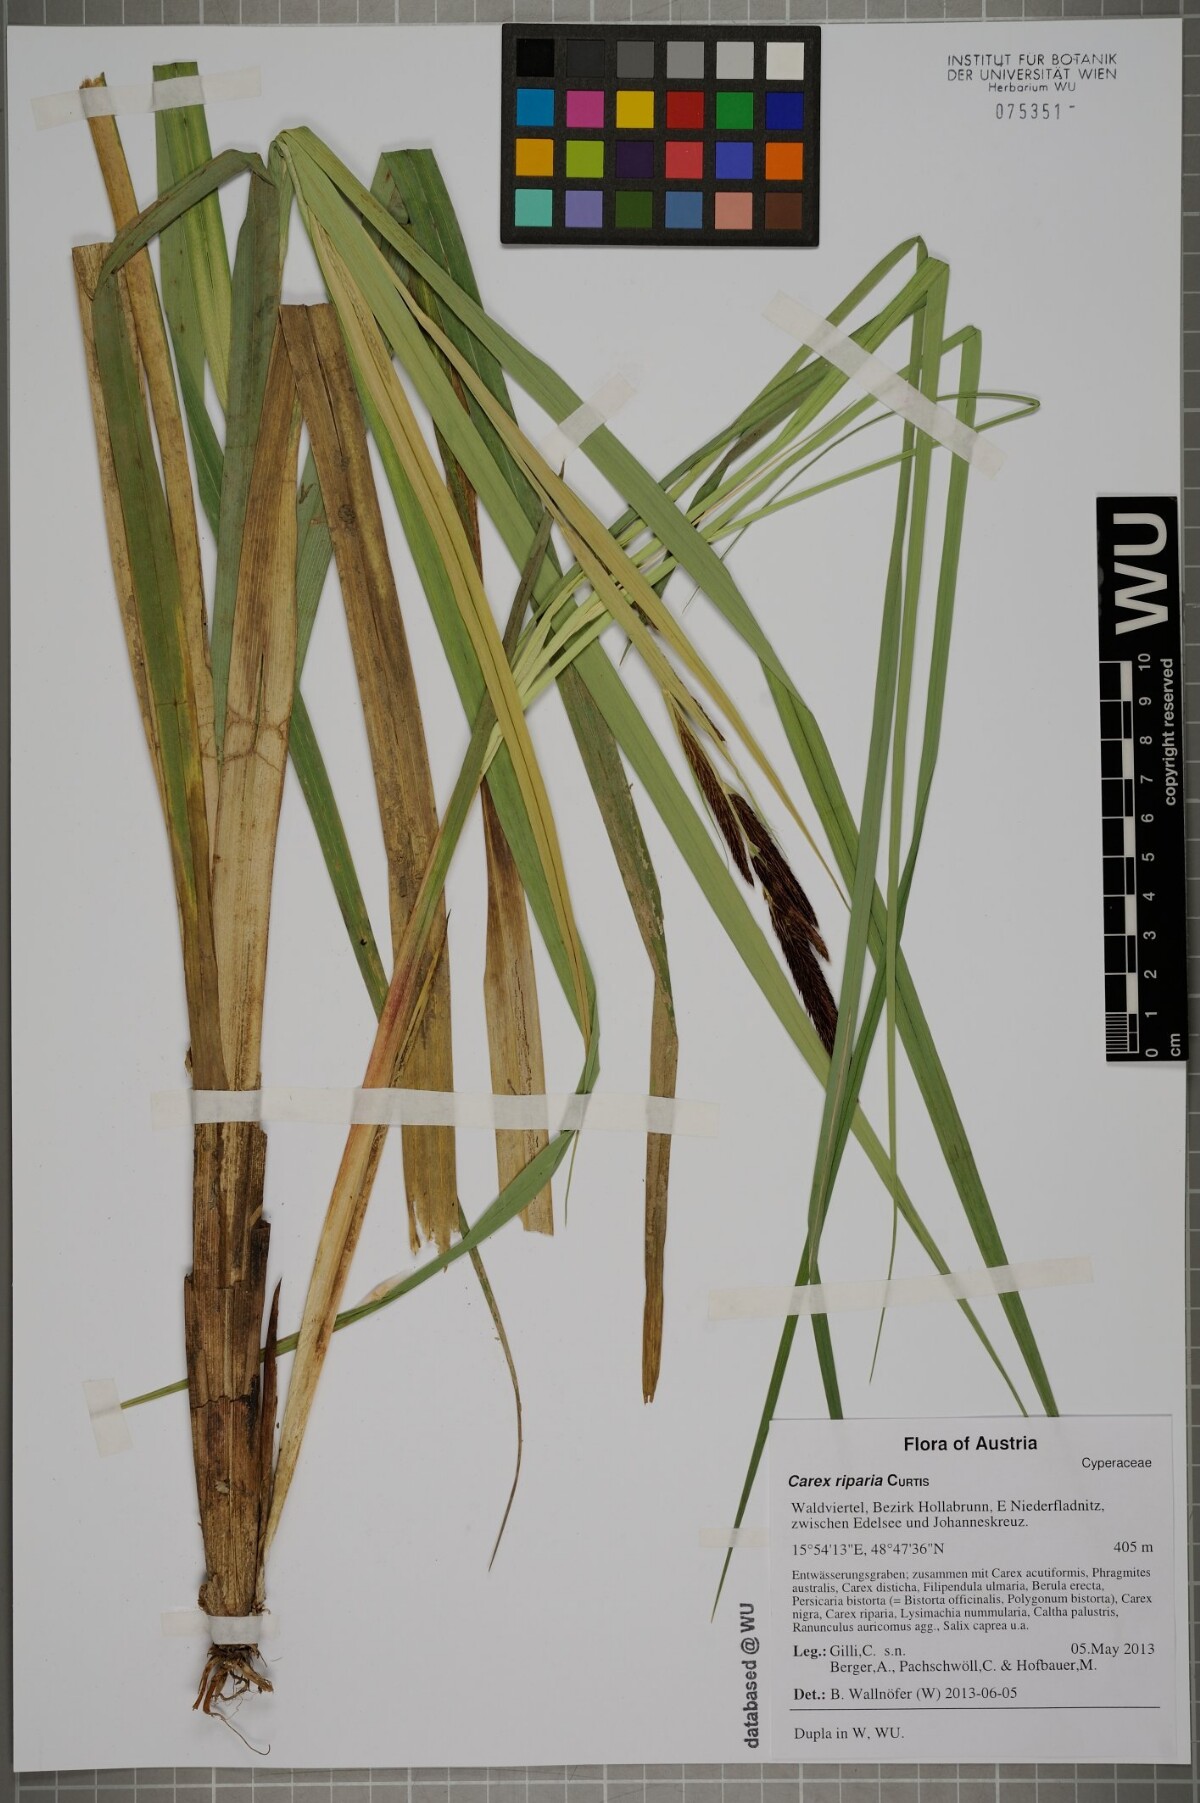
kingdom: Plantae
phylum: Tracheophyta
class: Liliopsida
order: Poales
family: Cyperaceae
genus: Carex
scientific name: Carex riparia
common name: Greater pond-sedge
